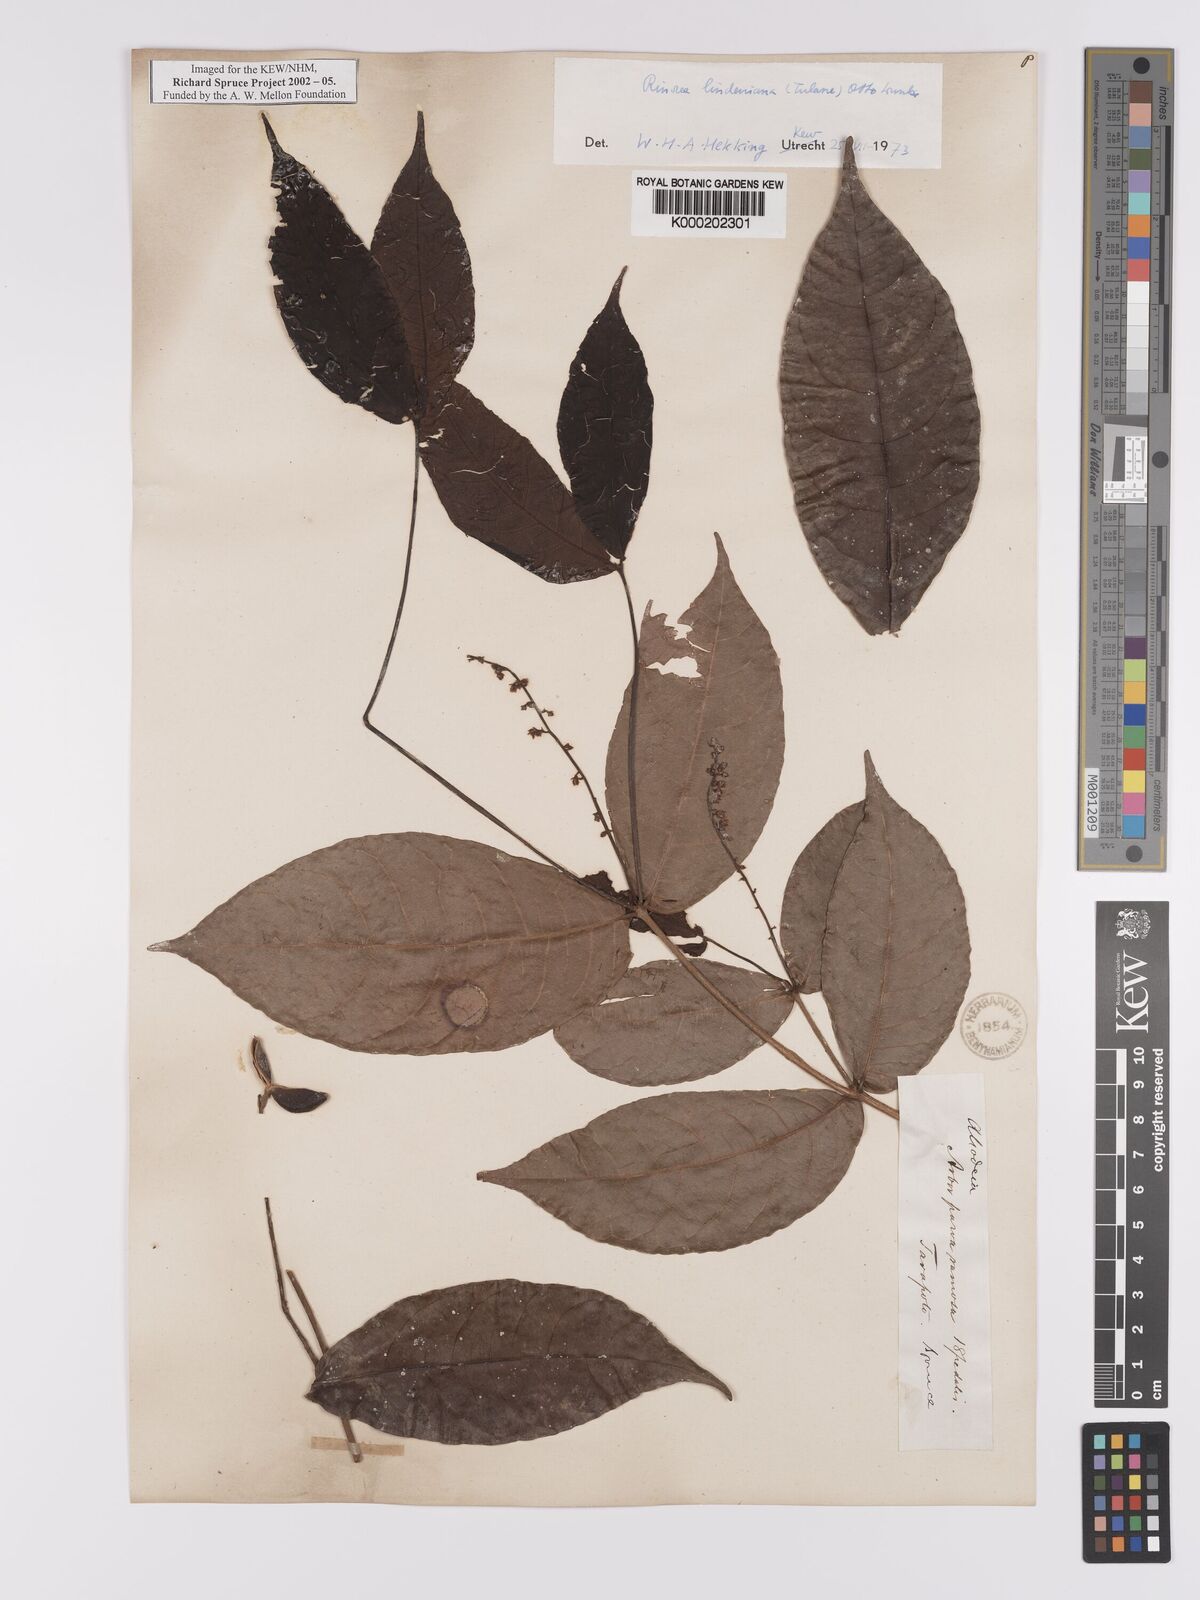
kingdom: Plantae
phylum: Tracheophyta
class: Magnoliopsida
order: Malpighiales
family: Violaceae
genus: Rinorea
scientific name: Rinorea lindeniana
